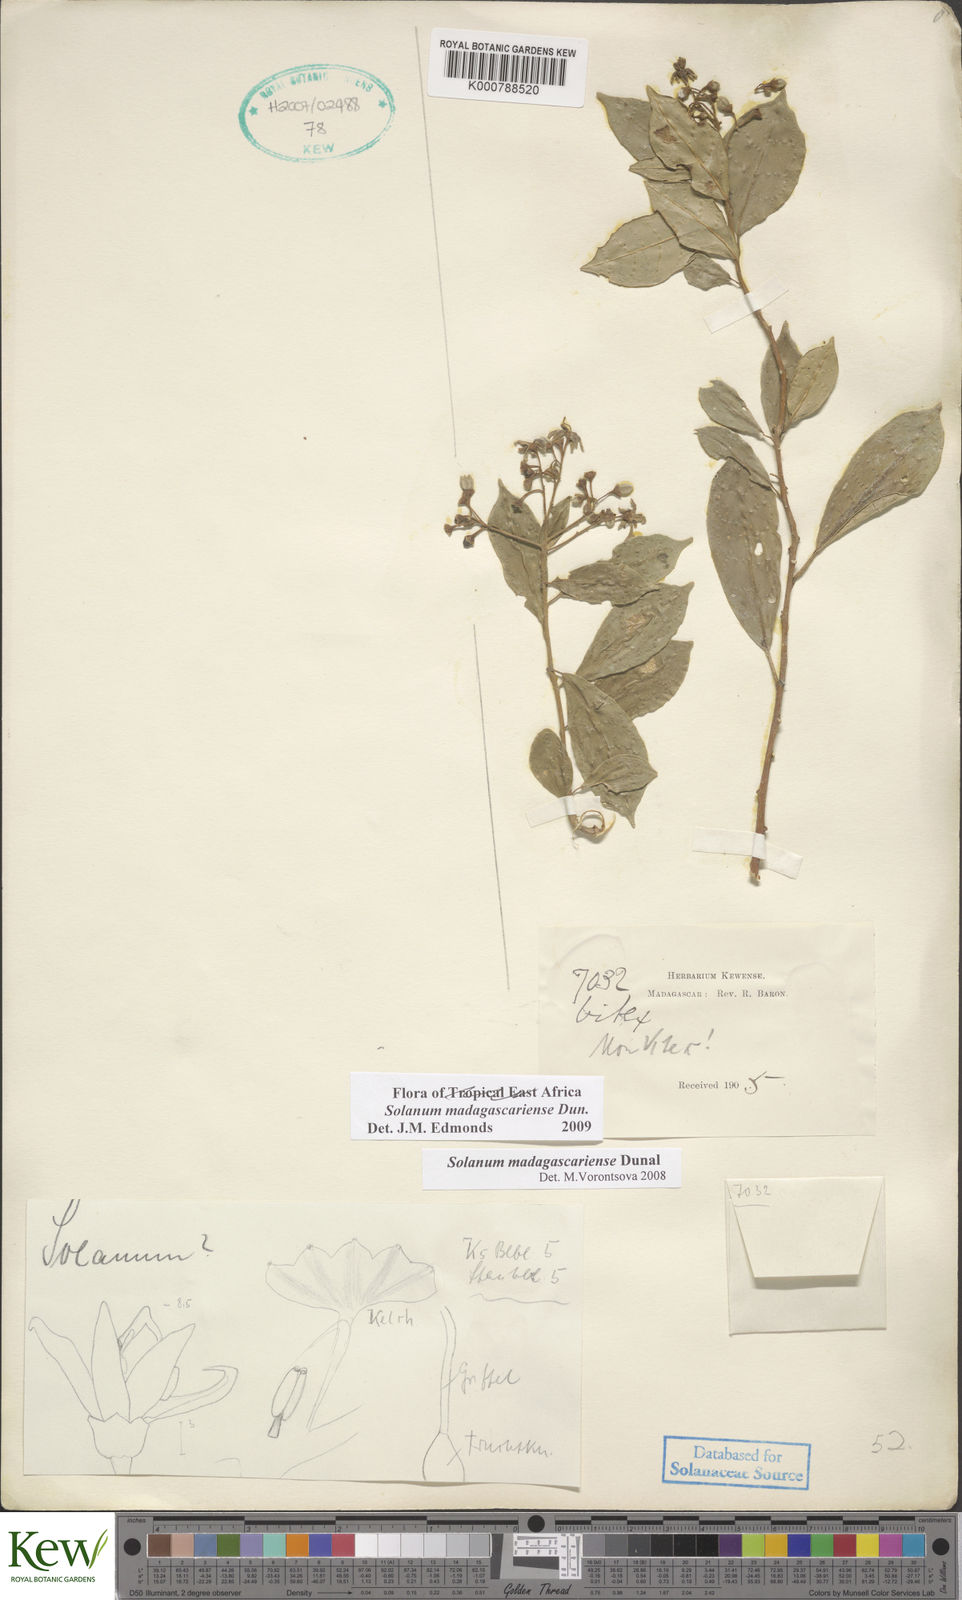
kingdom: Plantae
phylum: Tracheophyta
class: Magnoliopsida
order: Solanales
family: Solanaceae
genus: Solanum
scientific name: Solanum madagascariense
